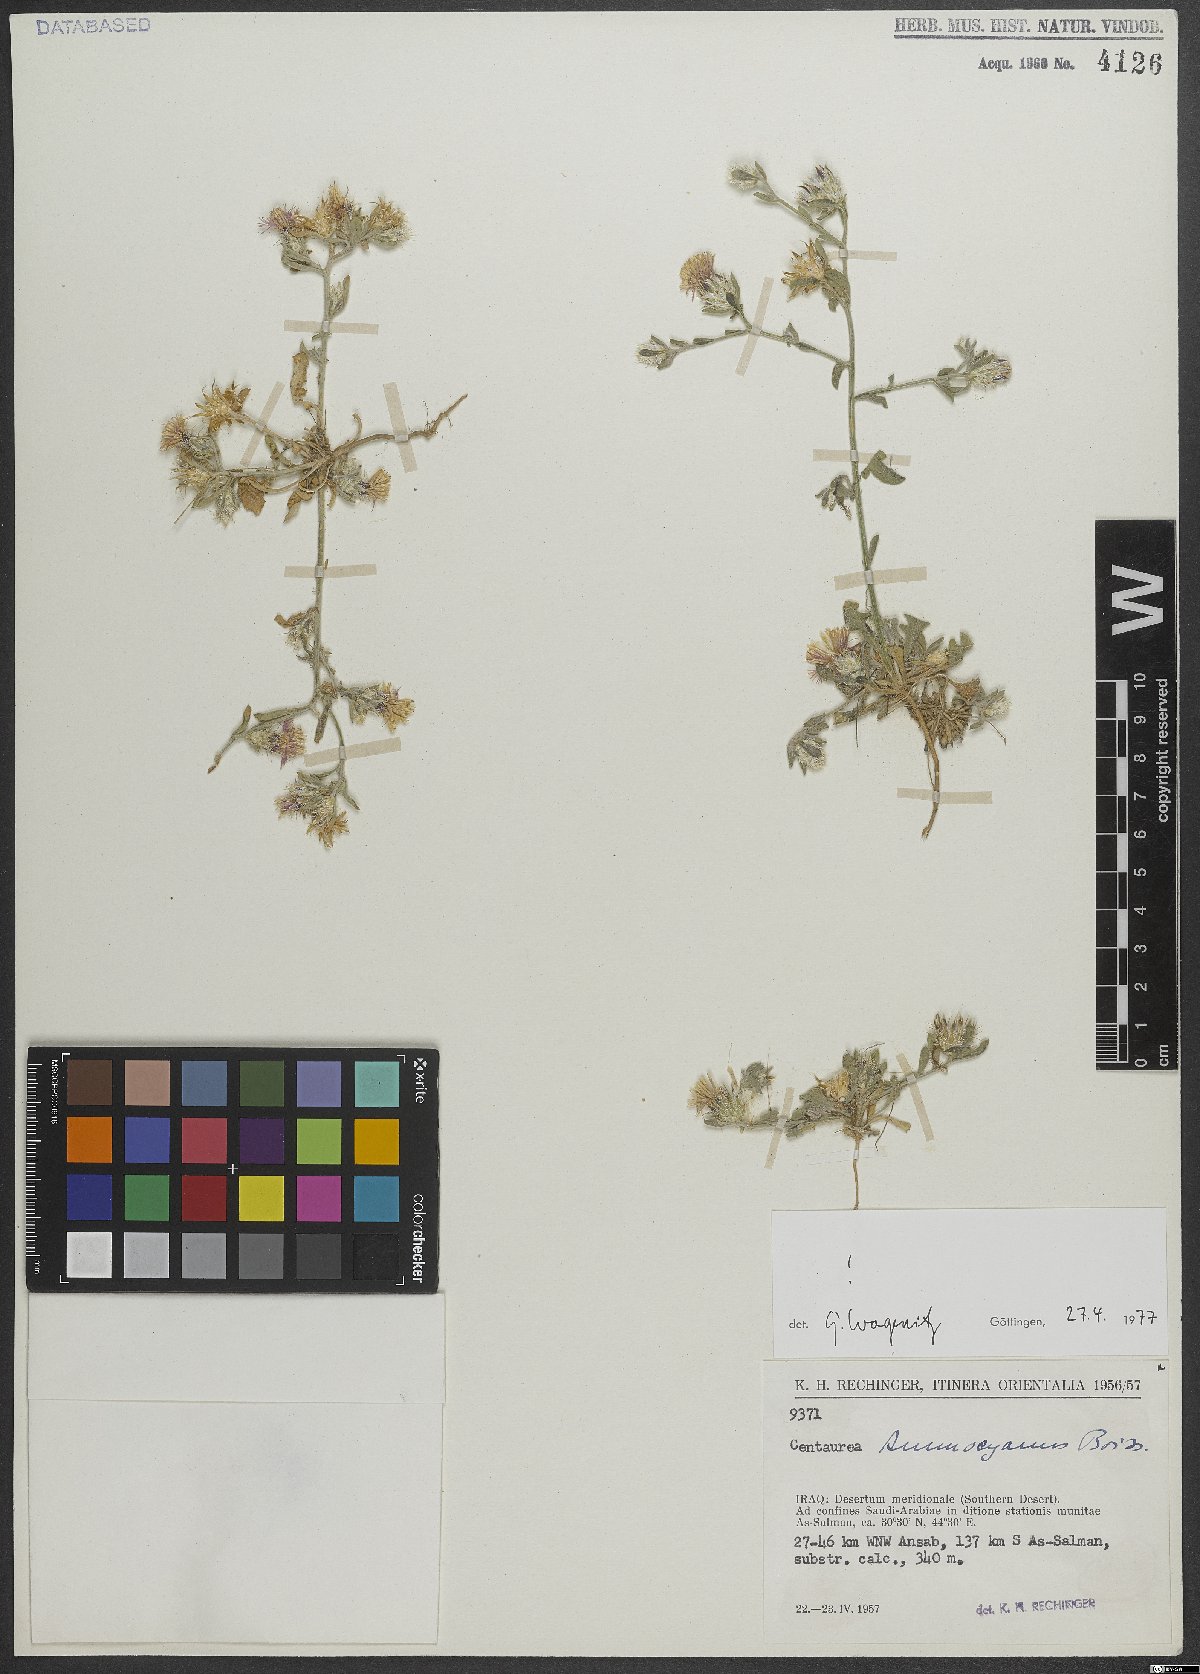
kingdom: Plantae
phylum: Tracheophyta
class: Magnoliopsida
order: Asterales
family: Asteraceae
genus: Centaurea
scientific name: Centaurea ammocyanus
